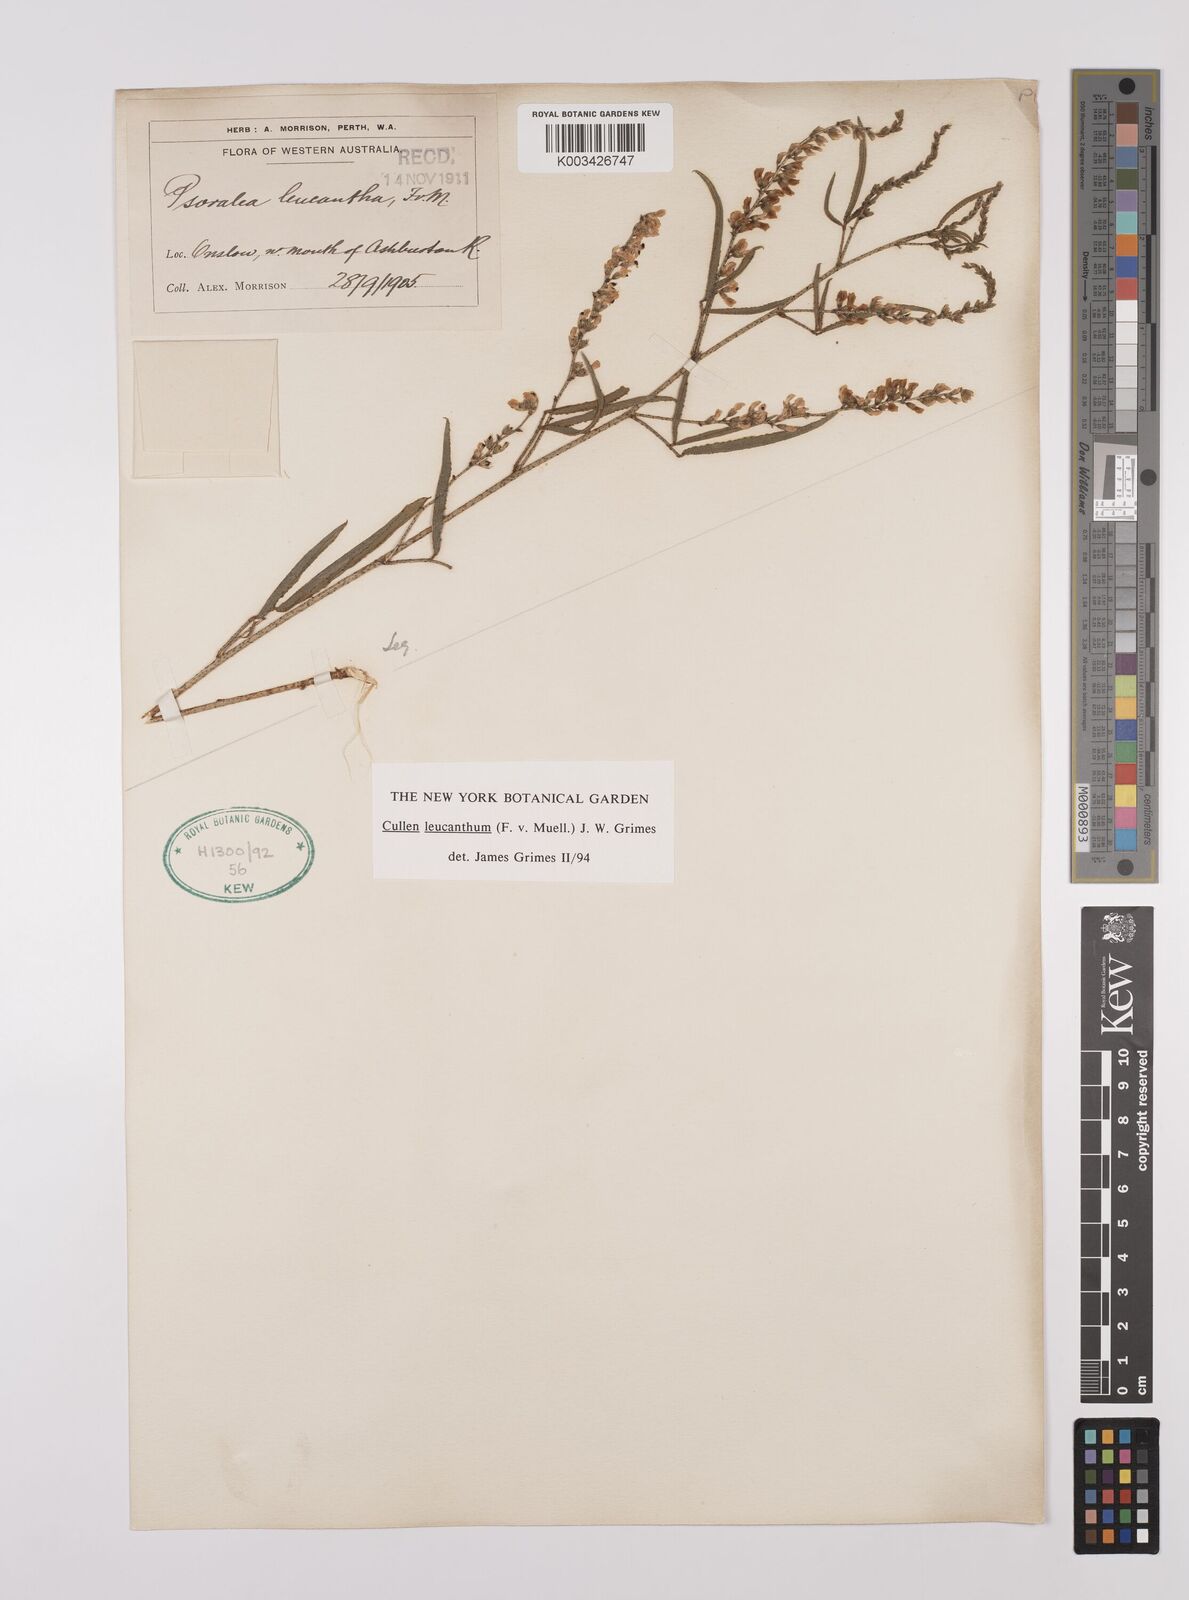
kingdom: Plantae
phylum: Tracheophyta
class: Magnoliopsida
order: Fabales
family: Fabaceae
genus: Cullen
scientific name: Cullen leucanthum
